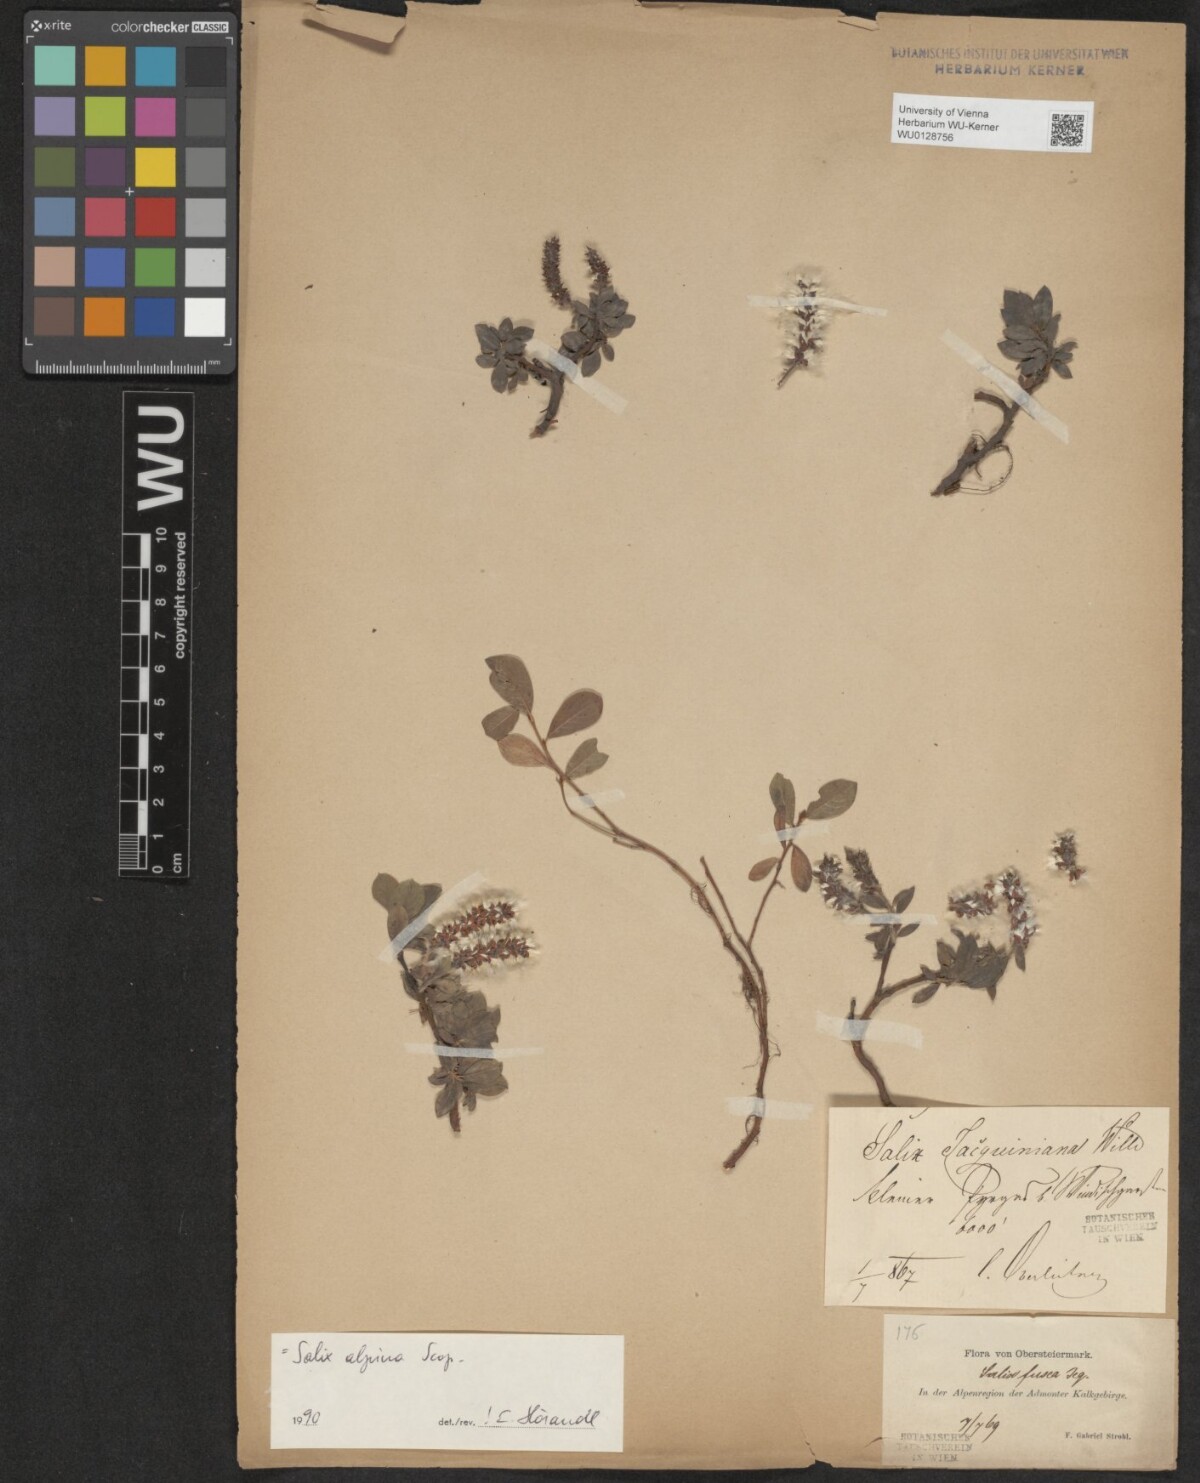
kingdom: Plantae
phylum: Tracheophyta
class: Magnoliopsida
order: Malpighiales
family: Salicaceae
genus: Salix
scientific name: Salix alpina
